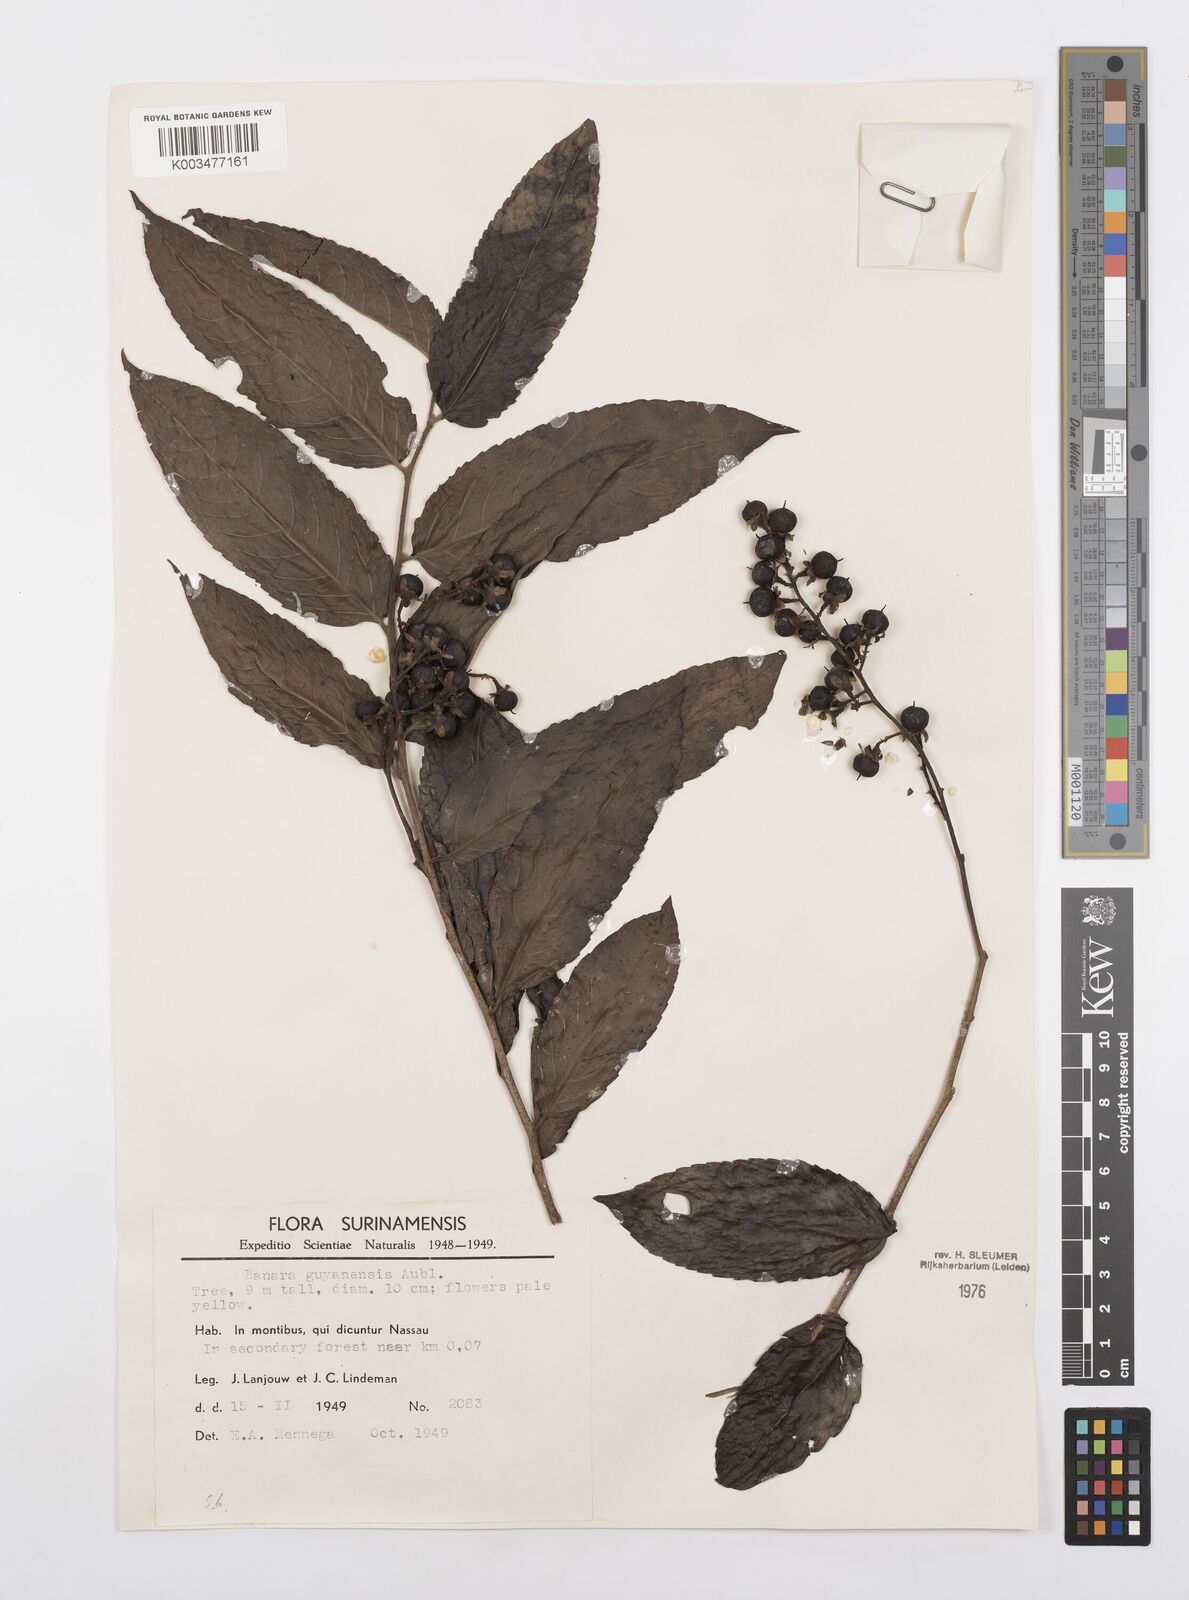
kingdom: Plantae
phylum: Tracheophyta
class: Magnoliopsida
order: Malpighiales
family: Salicaceae
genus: Banara
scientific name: Banara guianensis
